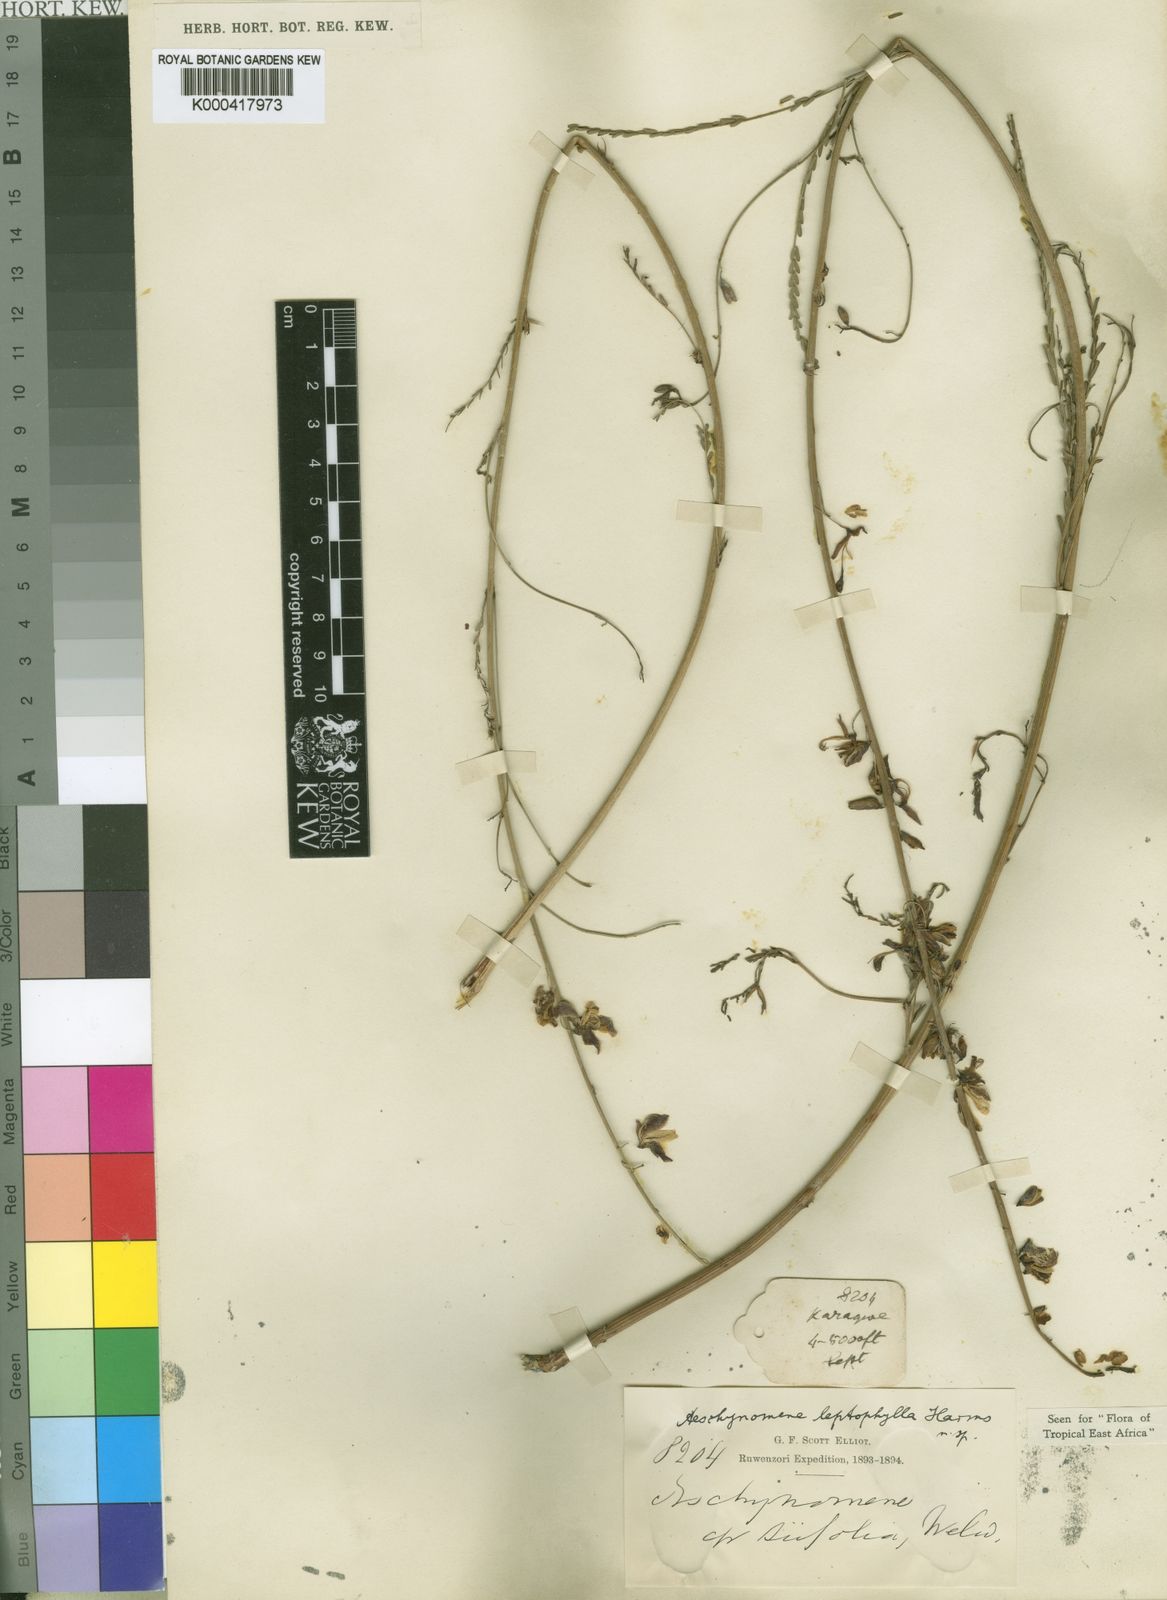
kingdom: Plantae
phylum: Tracheophyta
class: Magnoliopsida
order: Fabales
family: Fabaceae
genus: Aeschynomene
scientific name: Aeschynomene leptophylla
